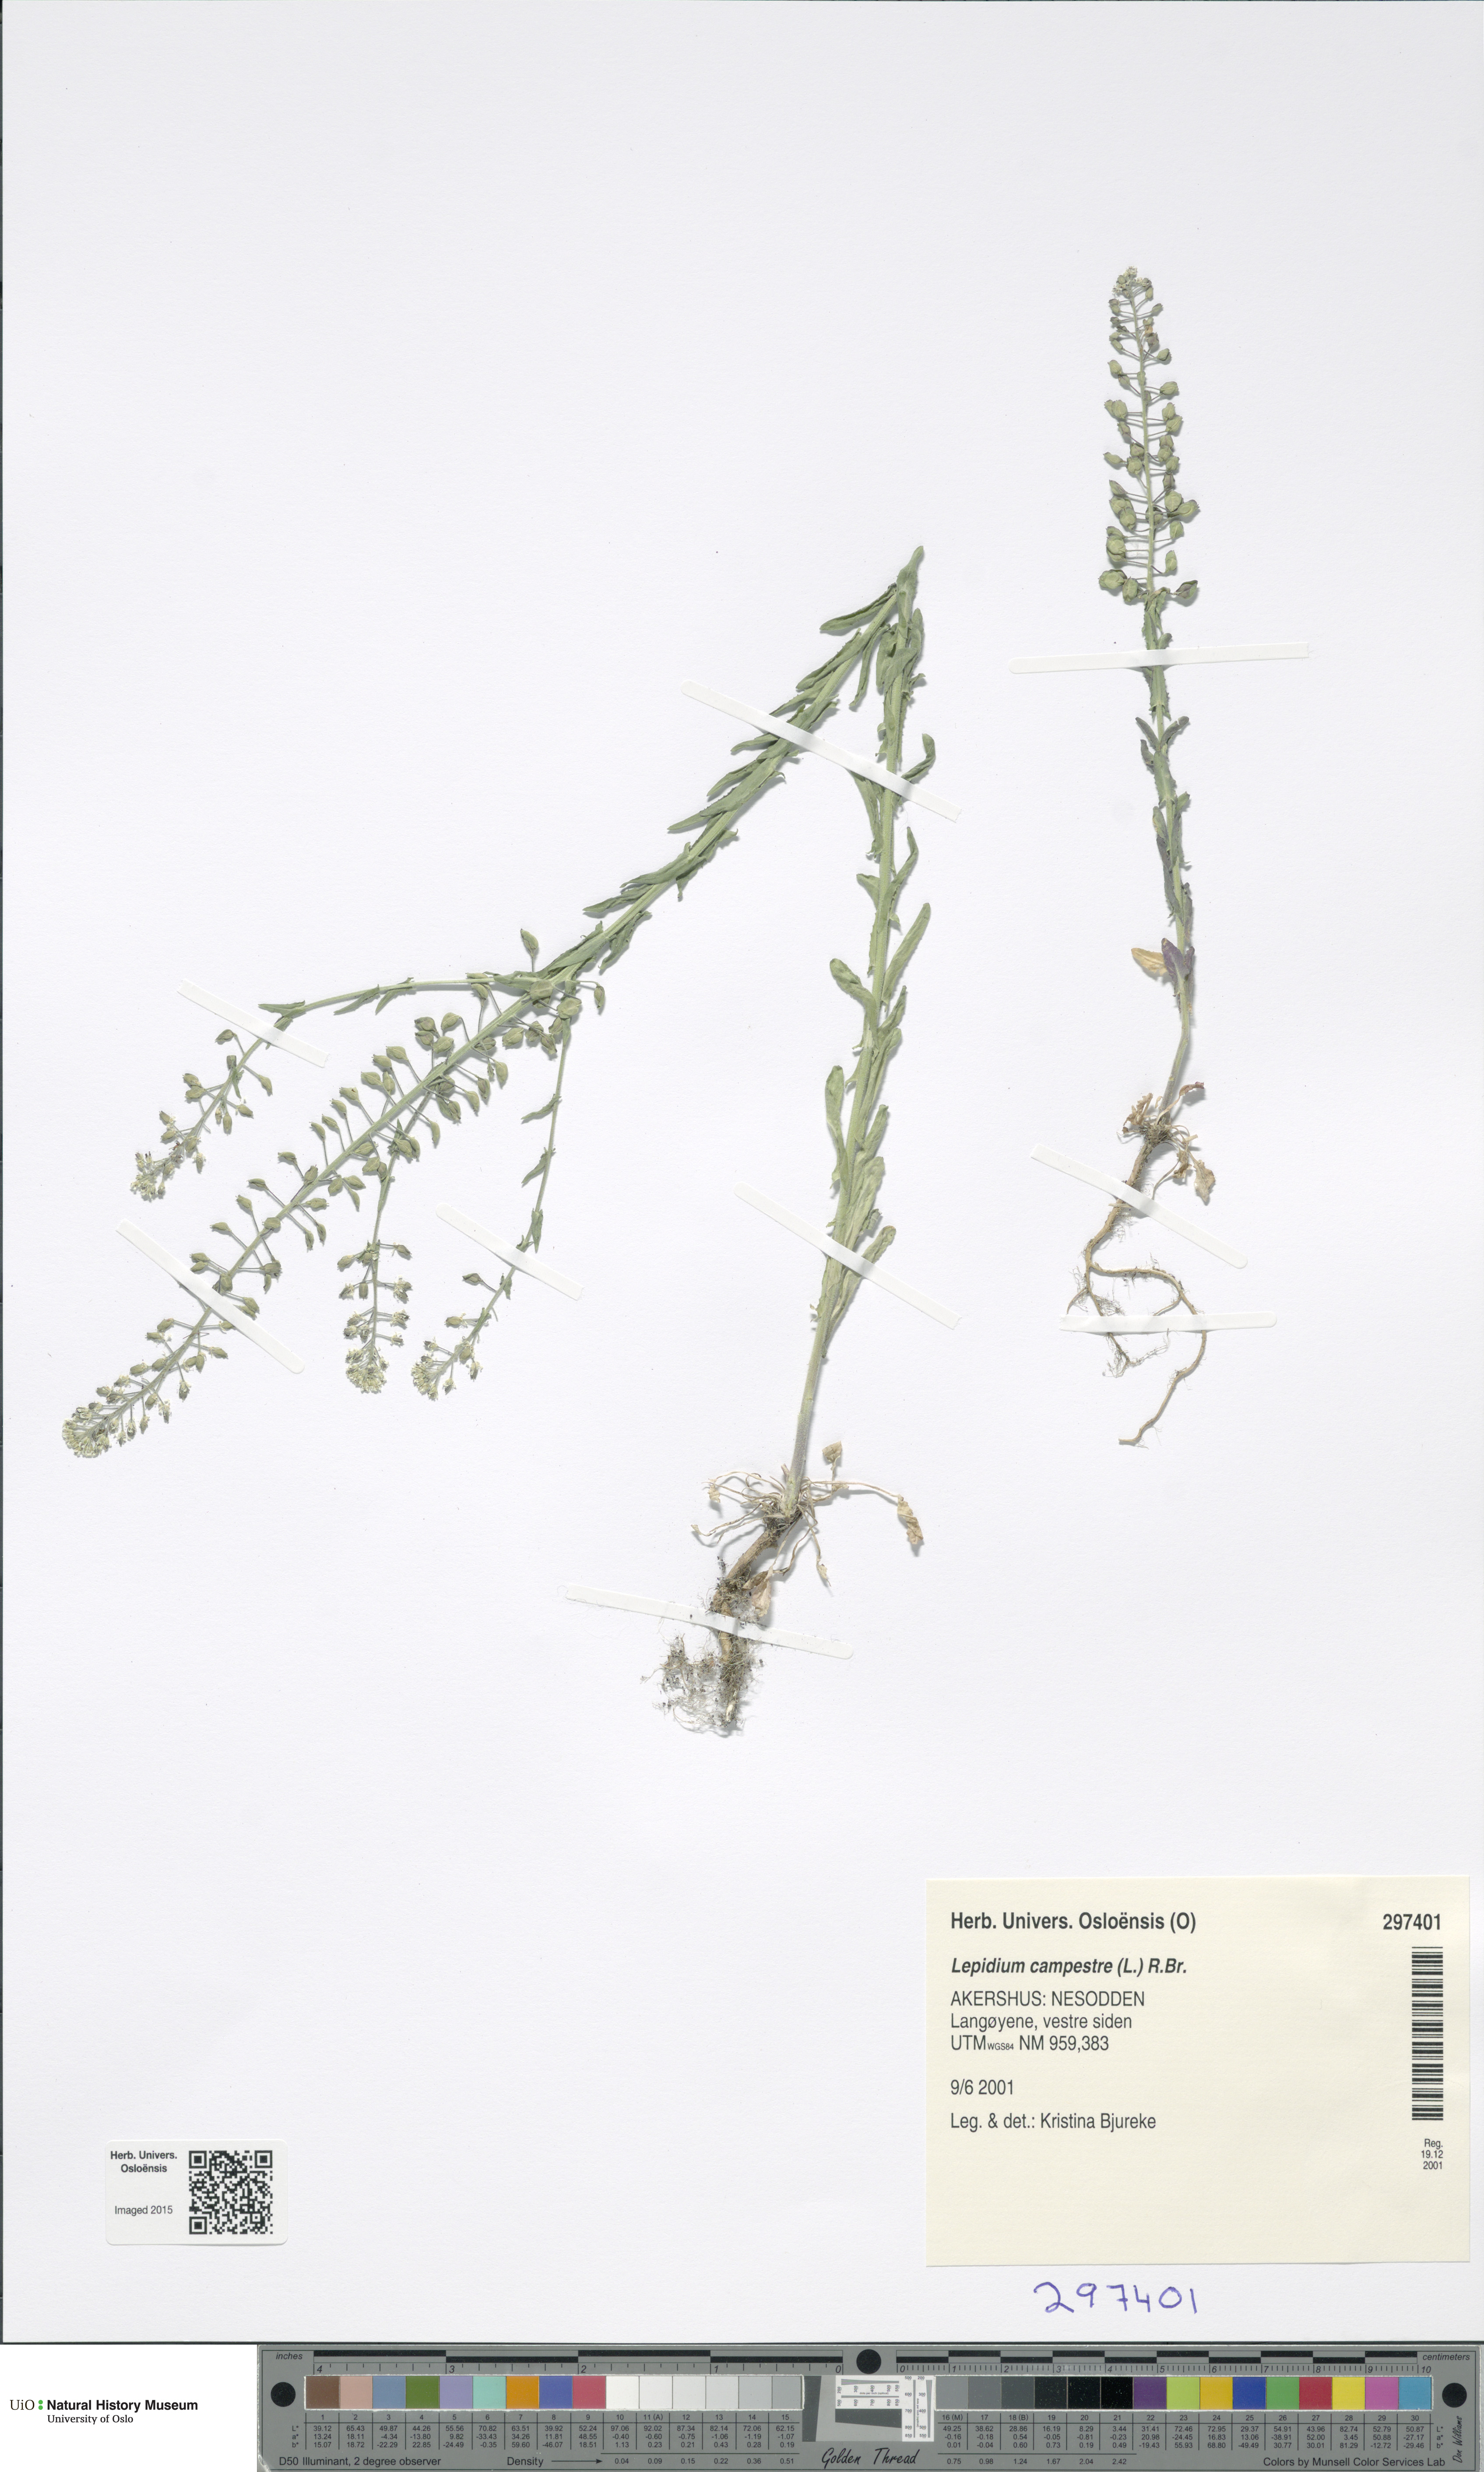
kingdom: Plantae
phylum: Tracheophyta
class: Magnoliopsida
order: Brassicales
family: Brassicaceae
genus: Lepidium
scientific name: Lepidium campestre
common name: Field pepperwort
